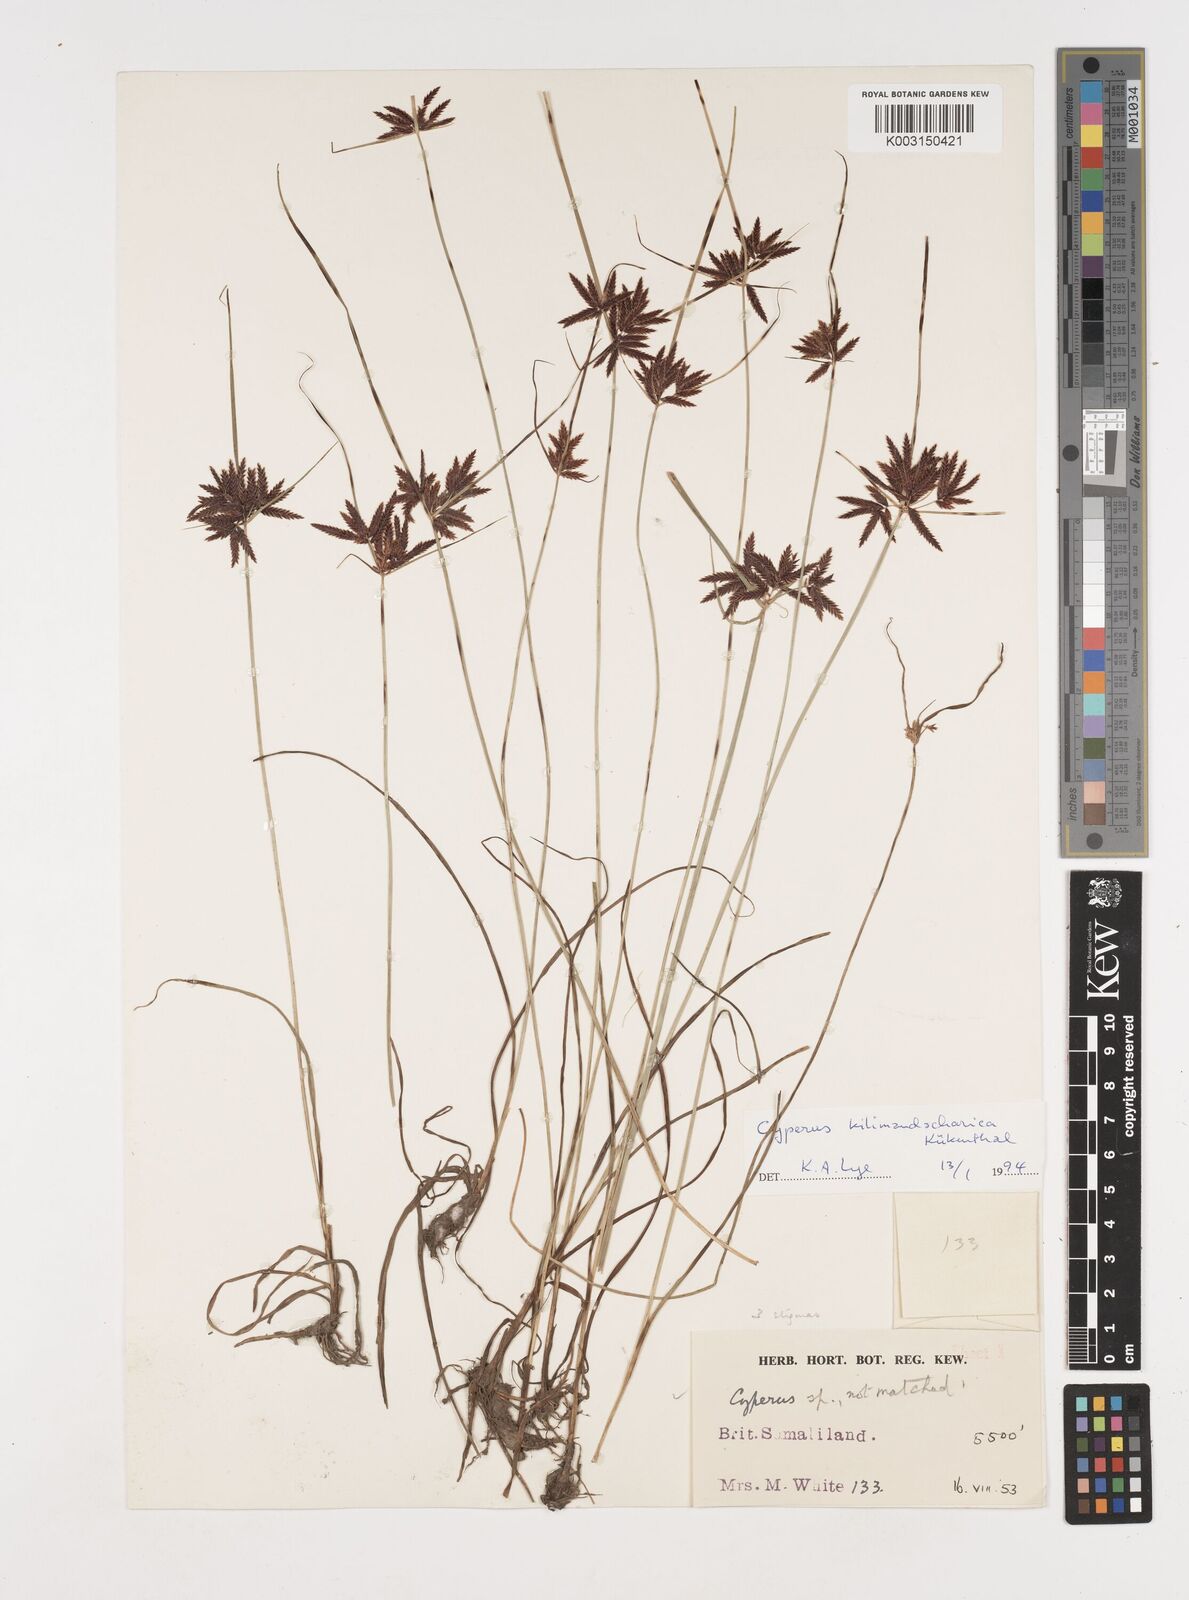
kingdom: Plantae
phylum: Tracheophyta
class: Liliopsida
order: Poales
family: Cyperaceae
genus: Cyperus
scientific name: Cyperus kilimandscharicus
